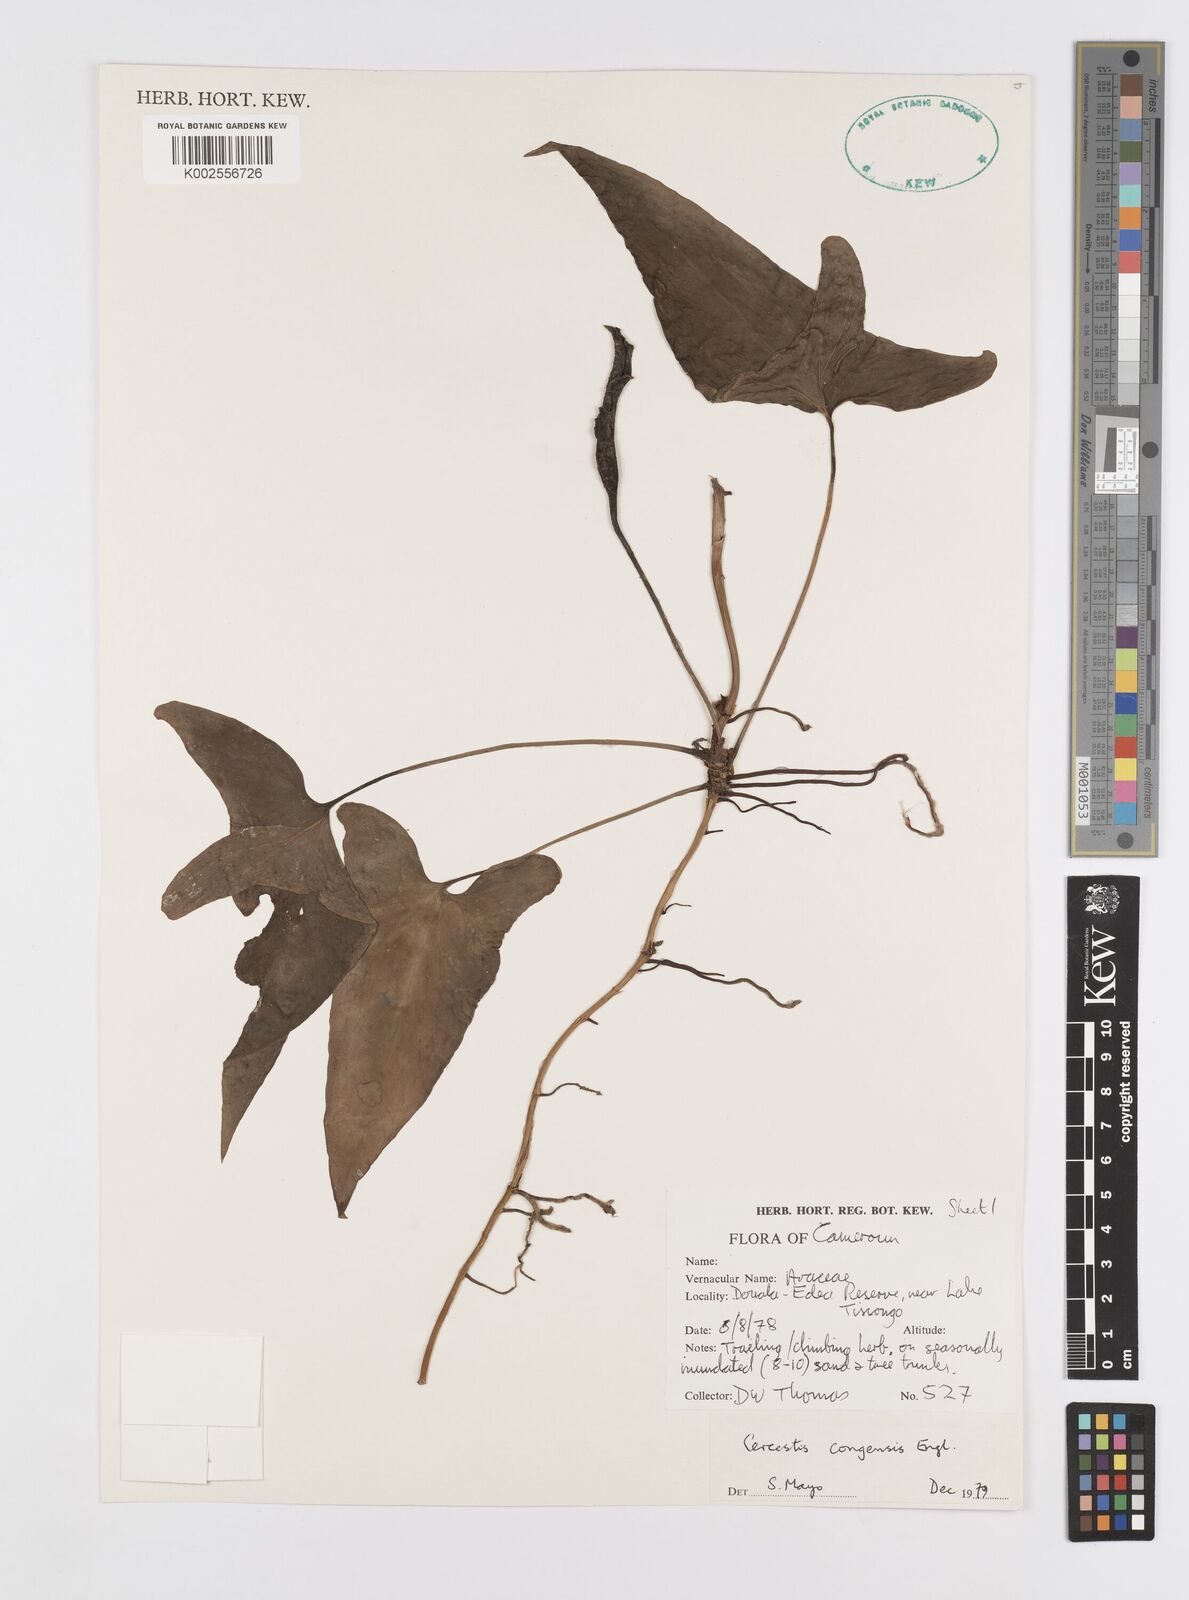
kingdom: Plantae
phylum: Tracheophyta
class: Liliopsida
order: Alismatales
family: Araceae
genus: Cercestis
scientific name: Cercestis congoensis
